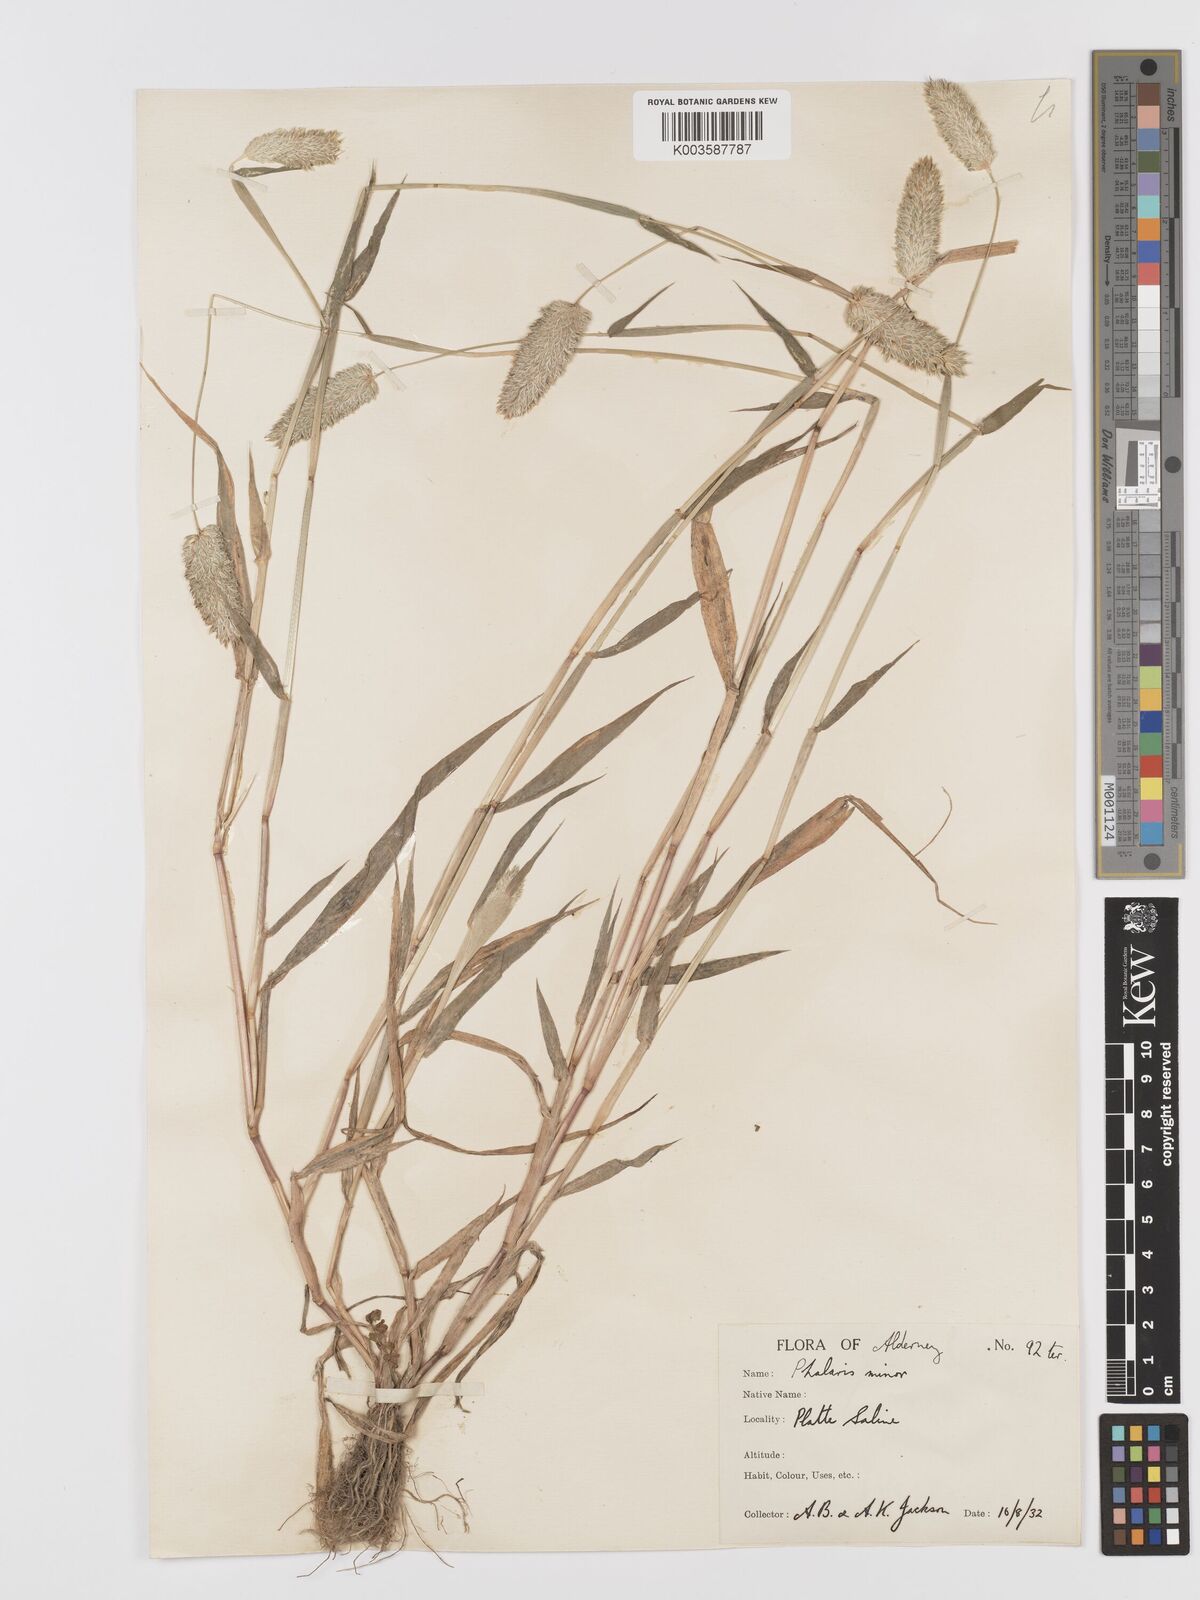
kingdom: Plantae
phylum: Tracheophyta
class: Liliopsida
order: Poales
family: Poaceae
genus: Phalaris
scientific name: Phalaris minor
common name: Littleseed canarygrass
